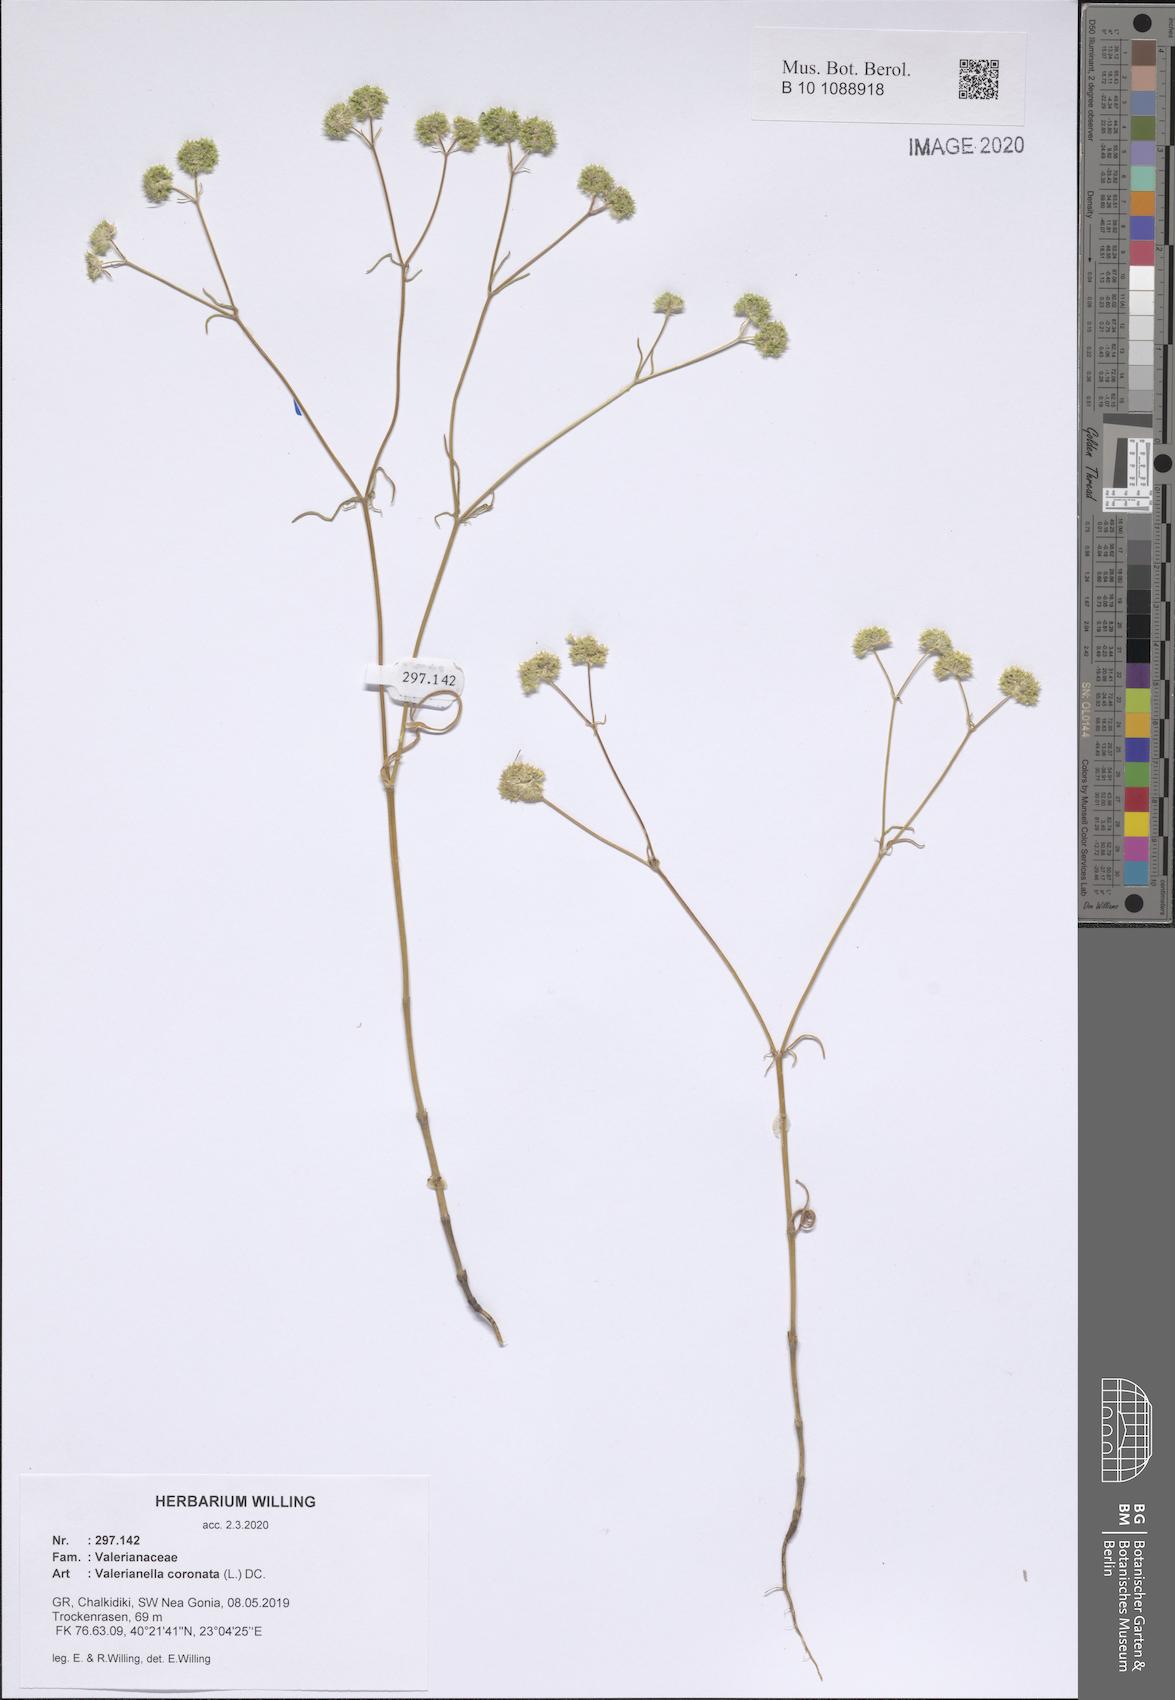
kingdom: Plantae
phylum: Tracheophyta
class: Magnoliopsida
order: Dipsacales
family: Caprifoliaceae
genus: Valerianella
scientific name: Valerianella coronata
